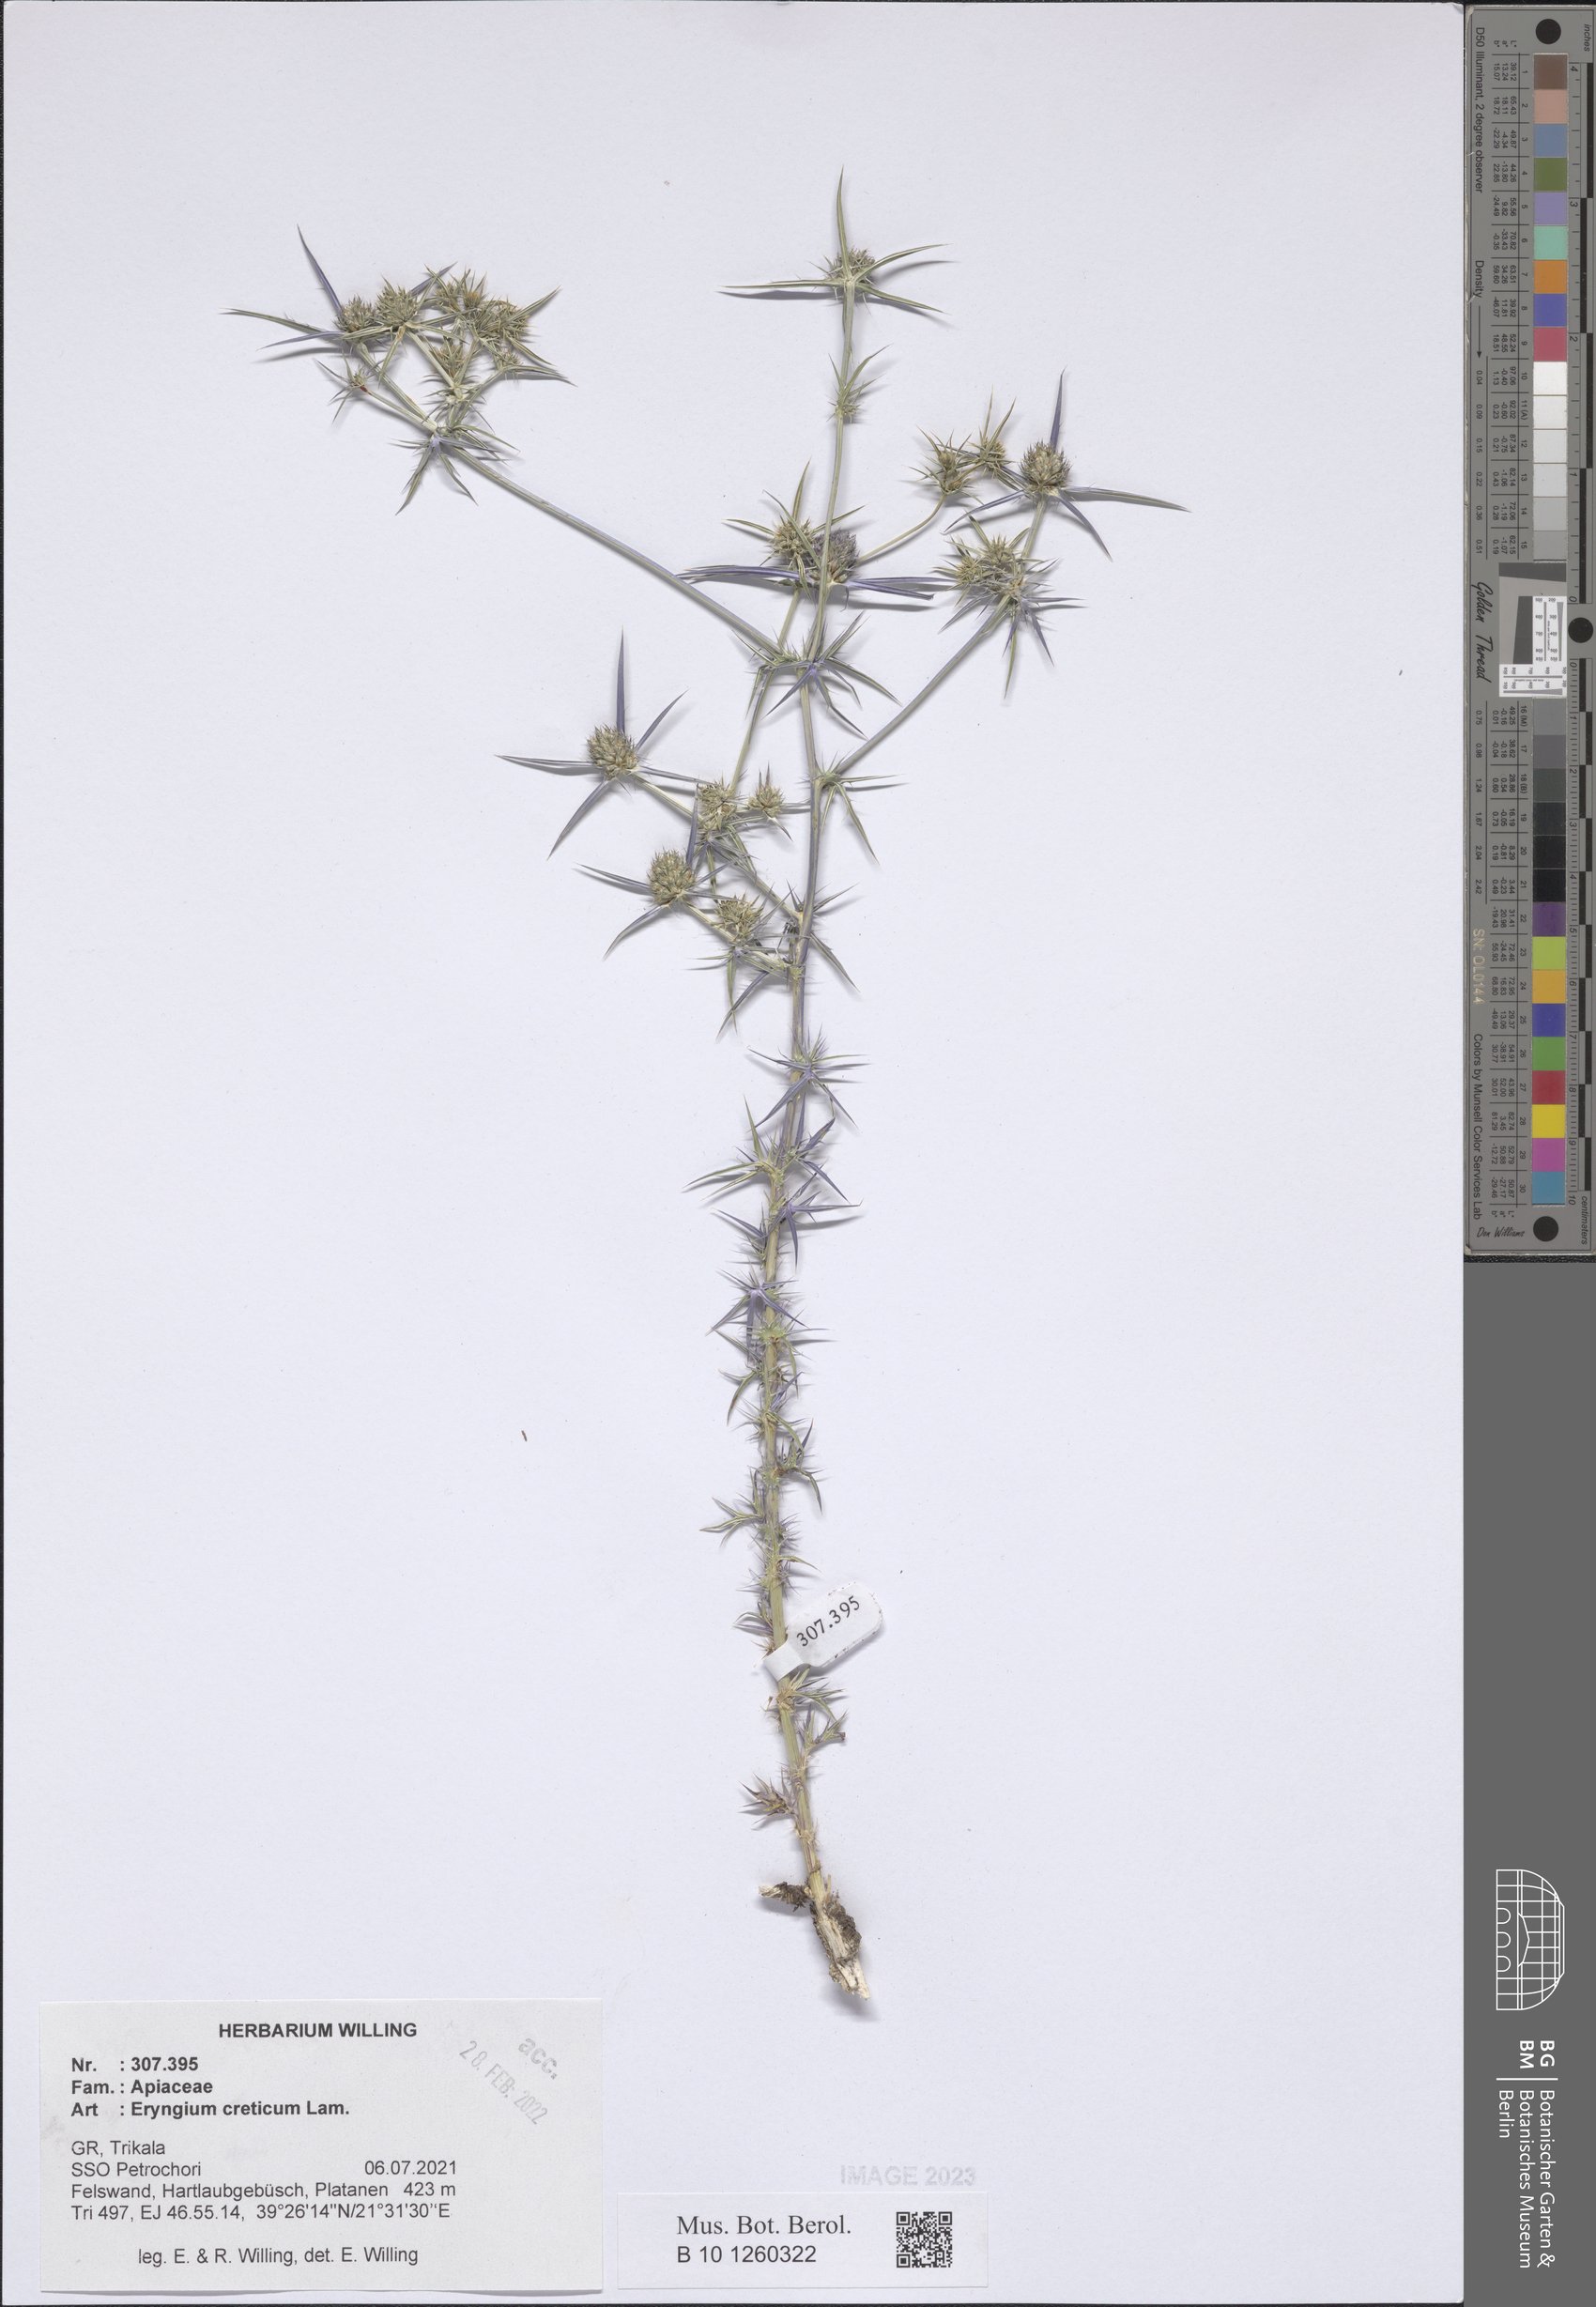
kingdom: Plantae
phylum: Tracheophyta
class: Magnoliopsida
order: Apiales
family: Apiaceae
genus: Eryngium
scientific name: Eryngium creticum
